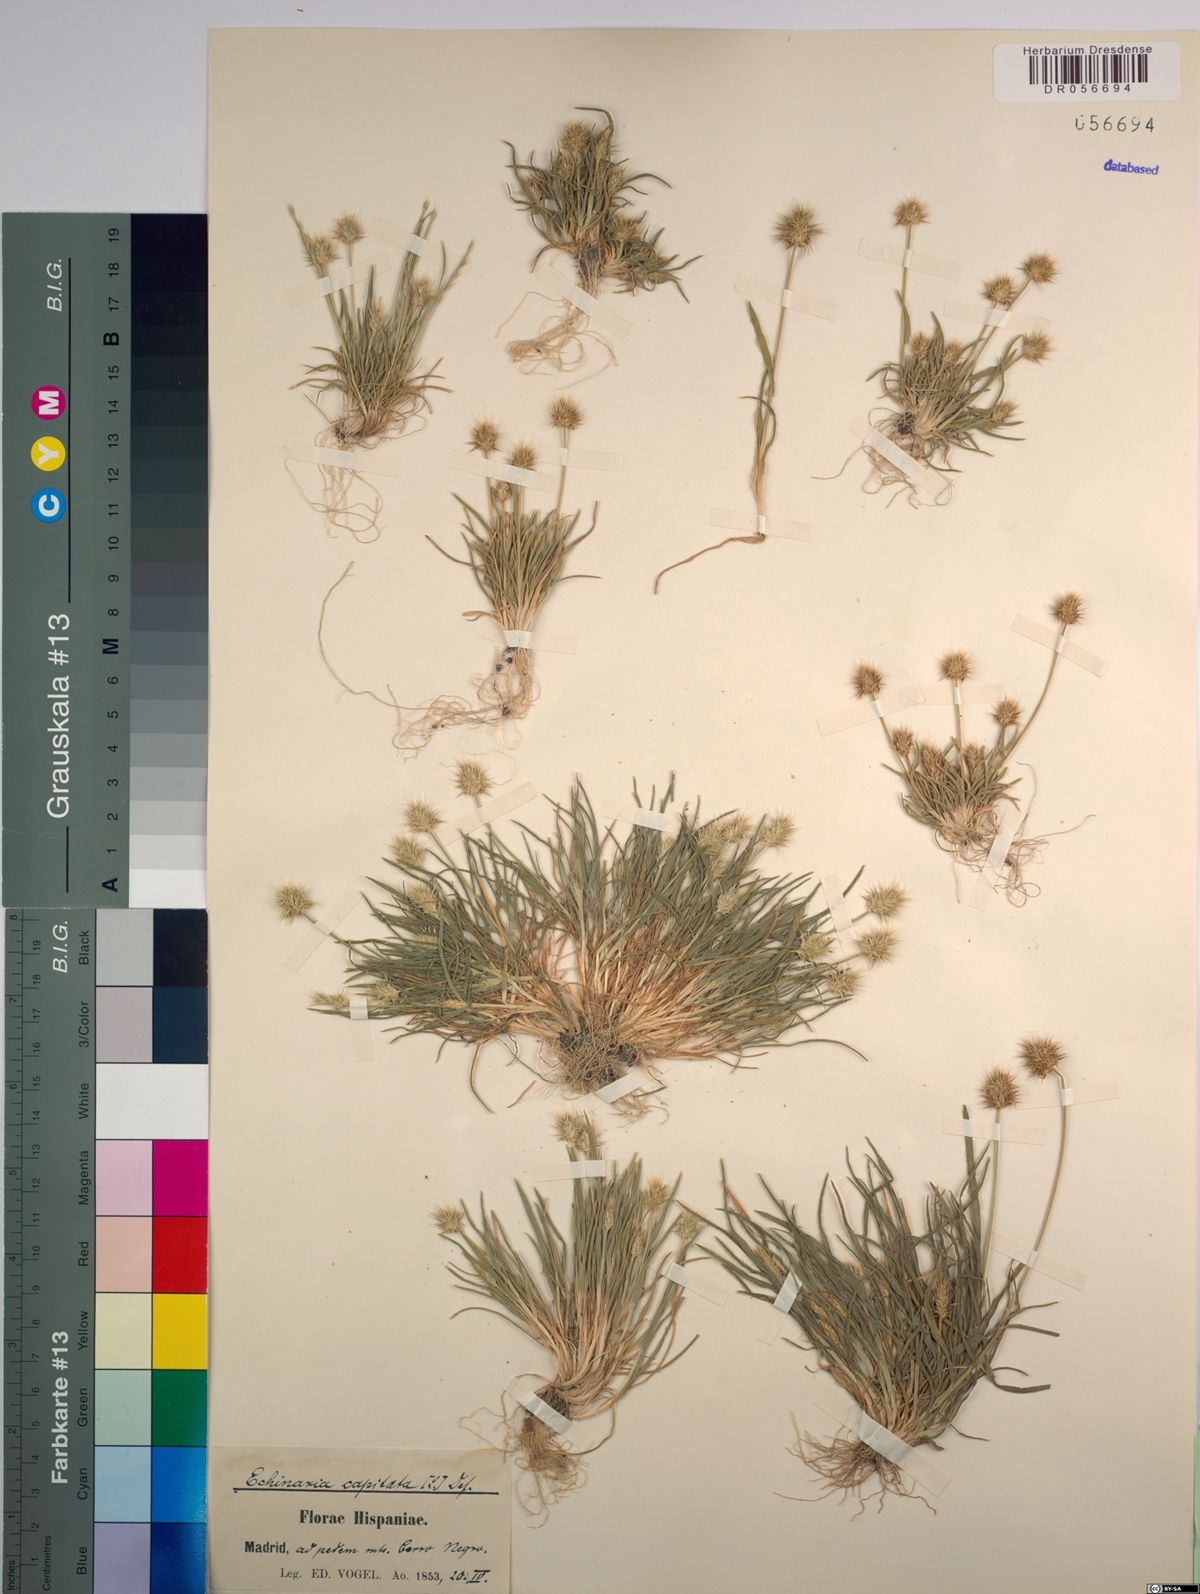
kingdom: Plantae
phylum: Tracheophyta
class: Liliopsida
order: Poales
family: Poaceae
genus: Echinaria
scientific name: Echinaria capitata
